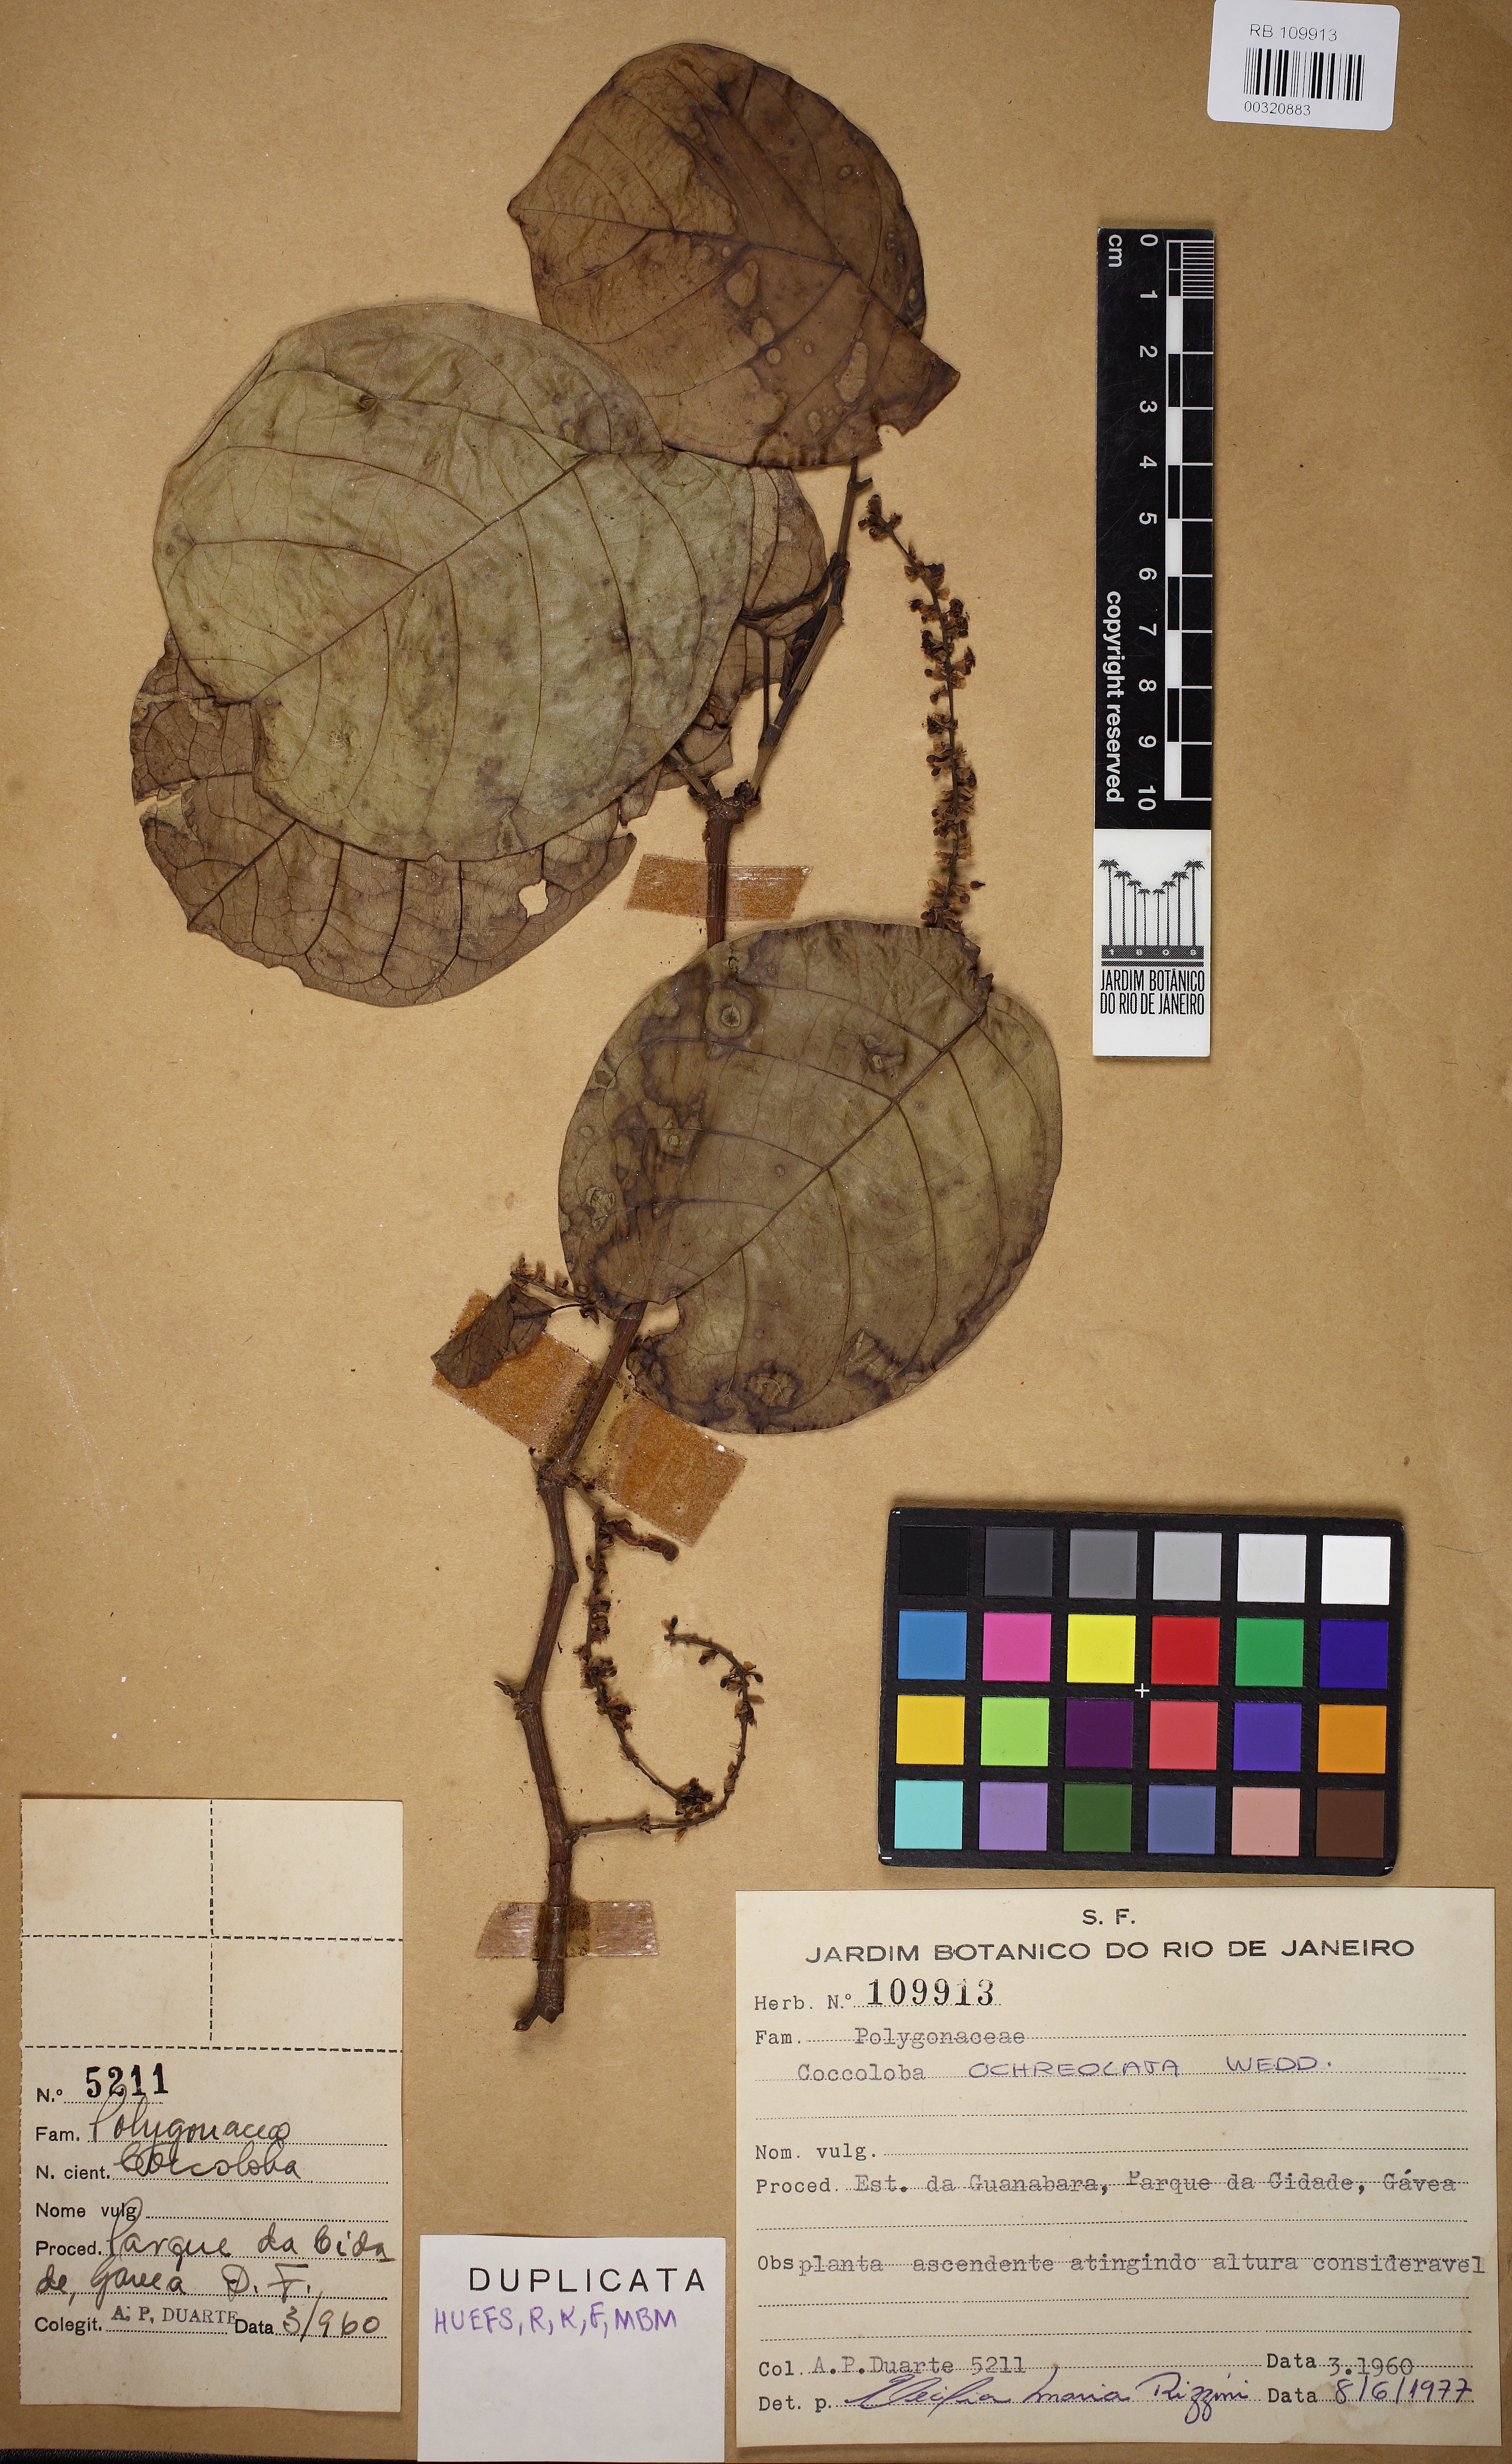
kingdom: Plantae
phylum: Tracheophyta
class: Magnoliopsida
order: Caryophyllales
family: Polygonaceae
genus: Coccoloba
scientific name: Coccoloba ochreolata
